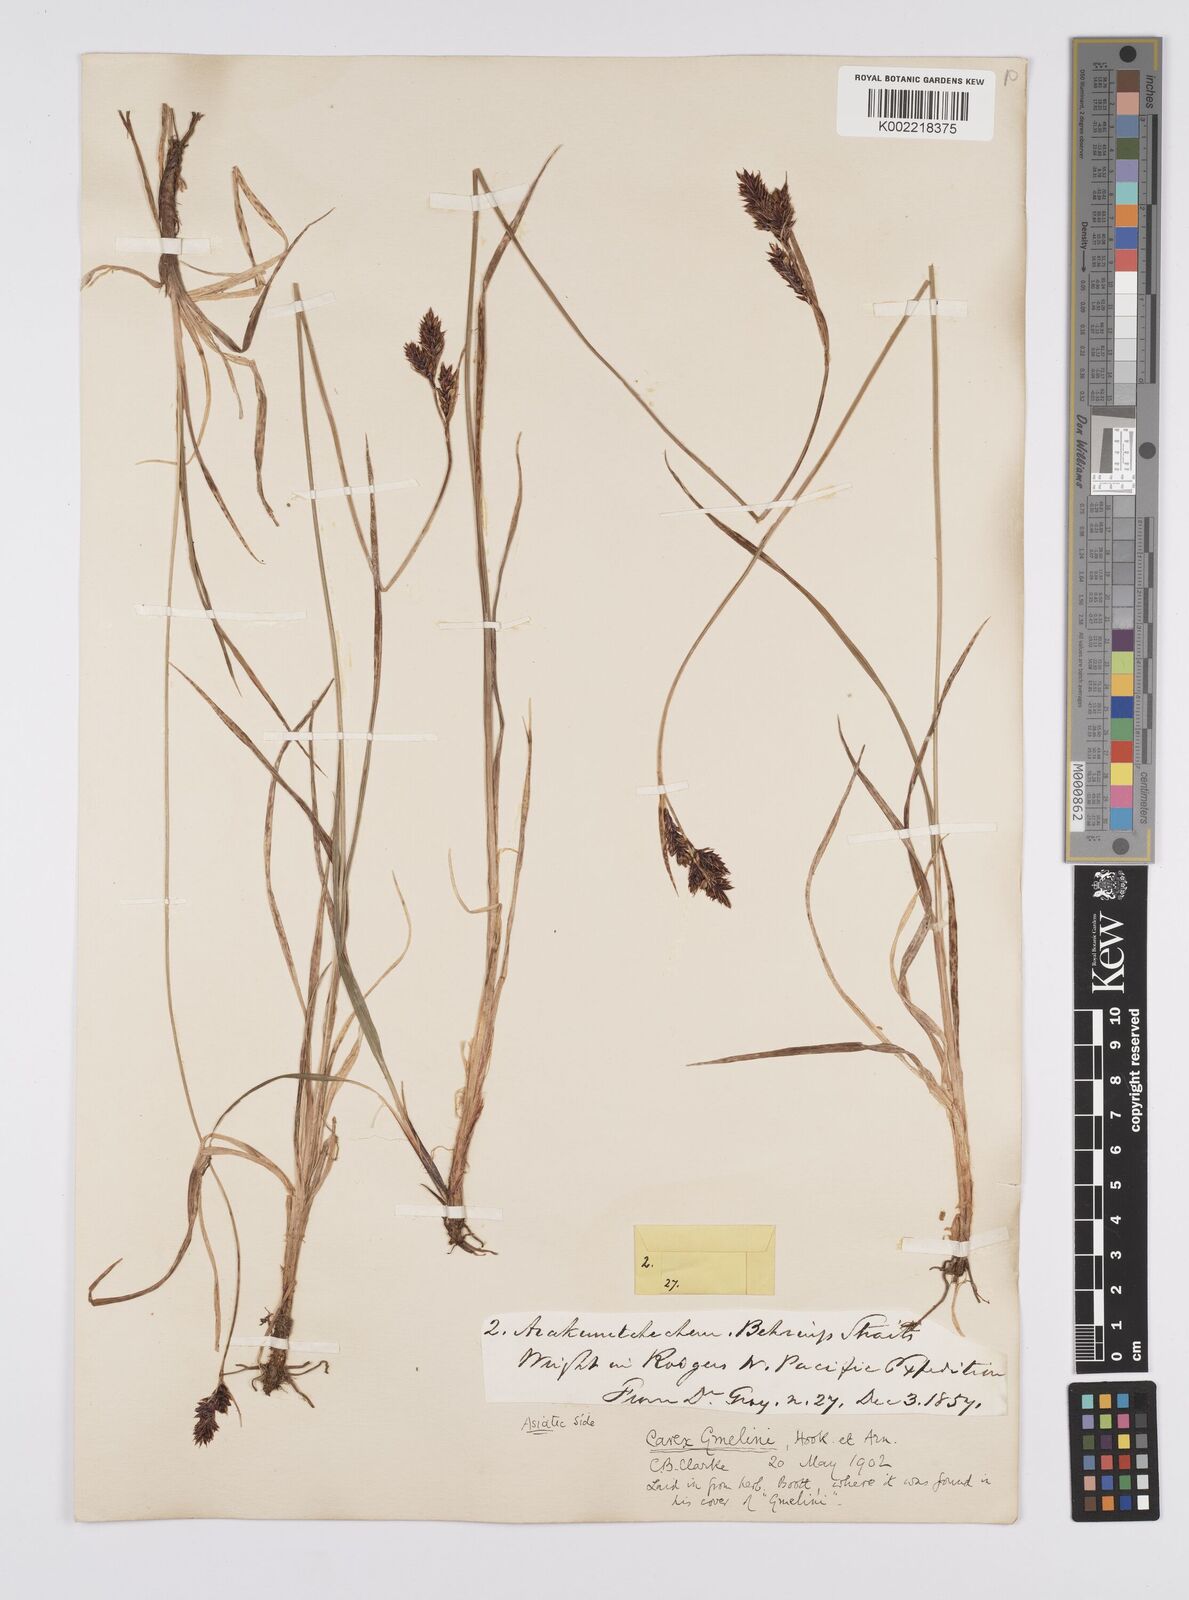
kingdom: Plantae
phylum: Tracheophyta
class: Liliopsida
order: Poales
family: Cyperaceae
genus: Carex
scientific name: Carex gmelinii
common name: Gmelin's sedge
